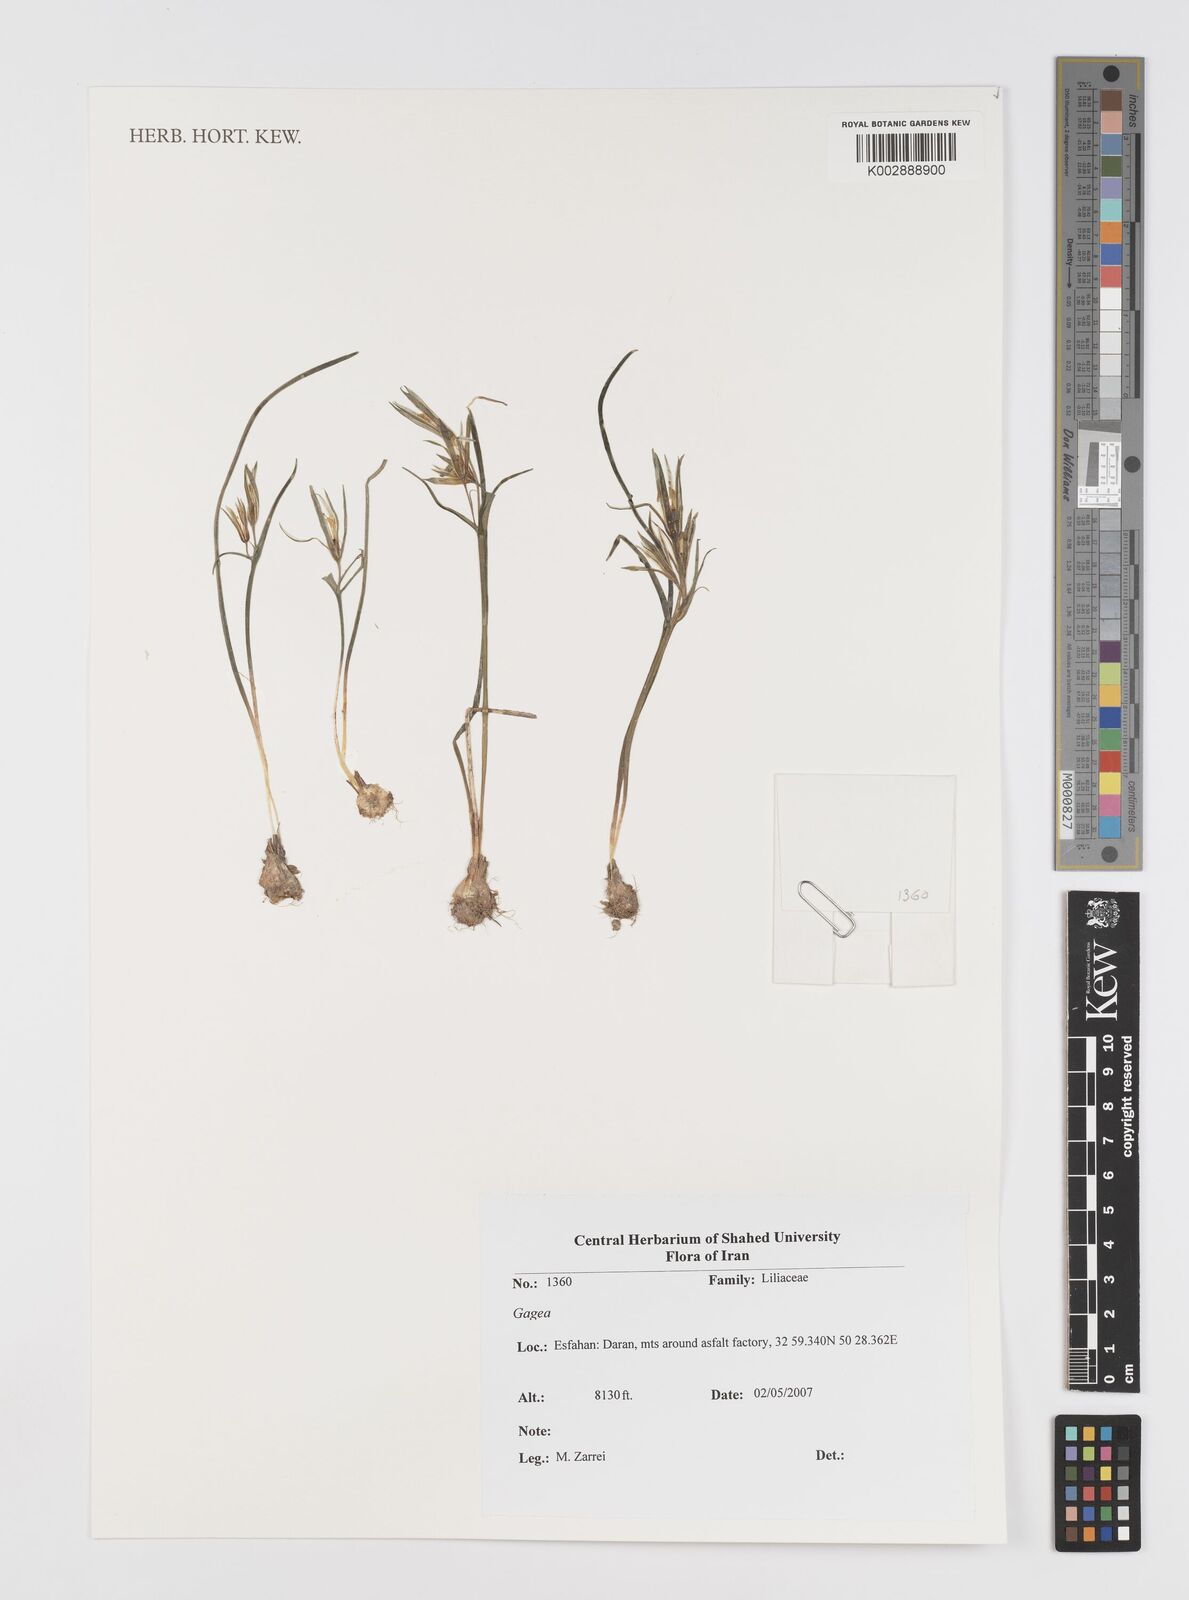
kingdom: Plantae
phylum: Tracheophyta
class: Liliopsida
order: Liliales
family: Liliaceae
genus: Gagea
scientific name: Gagea
